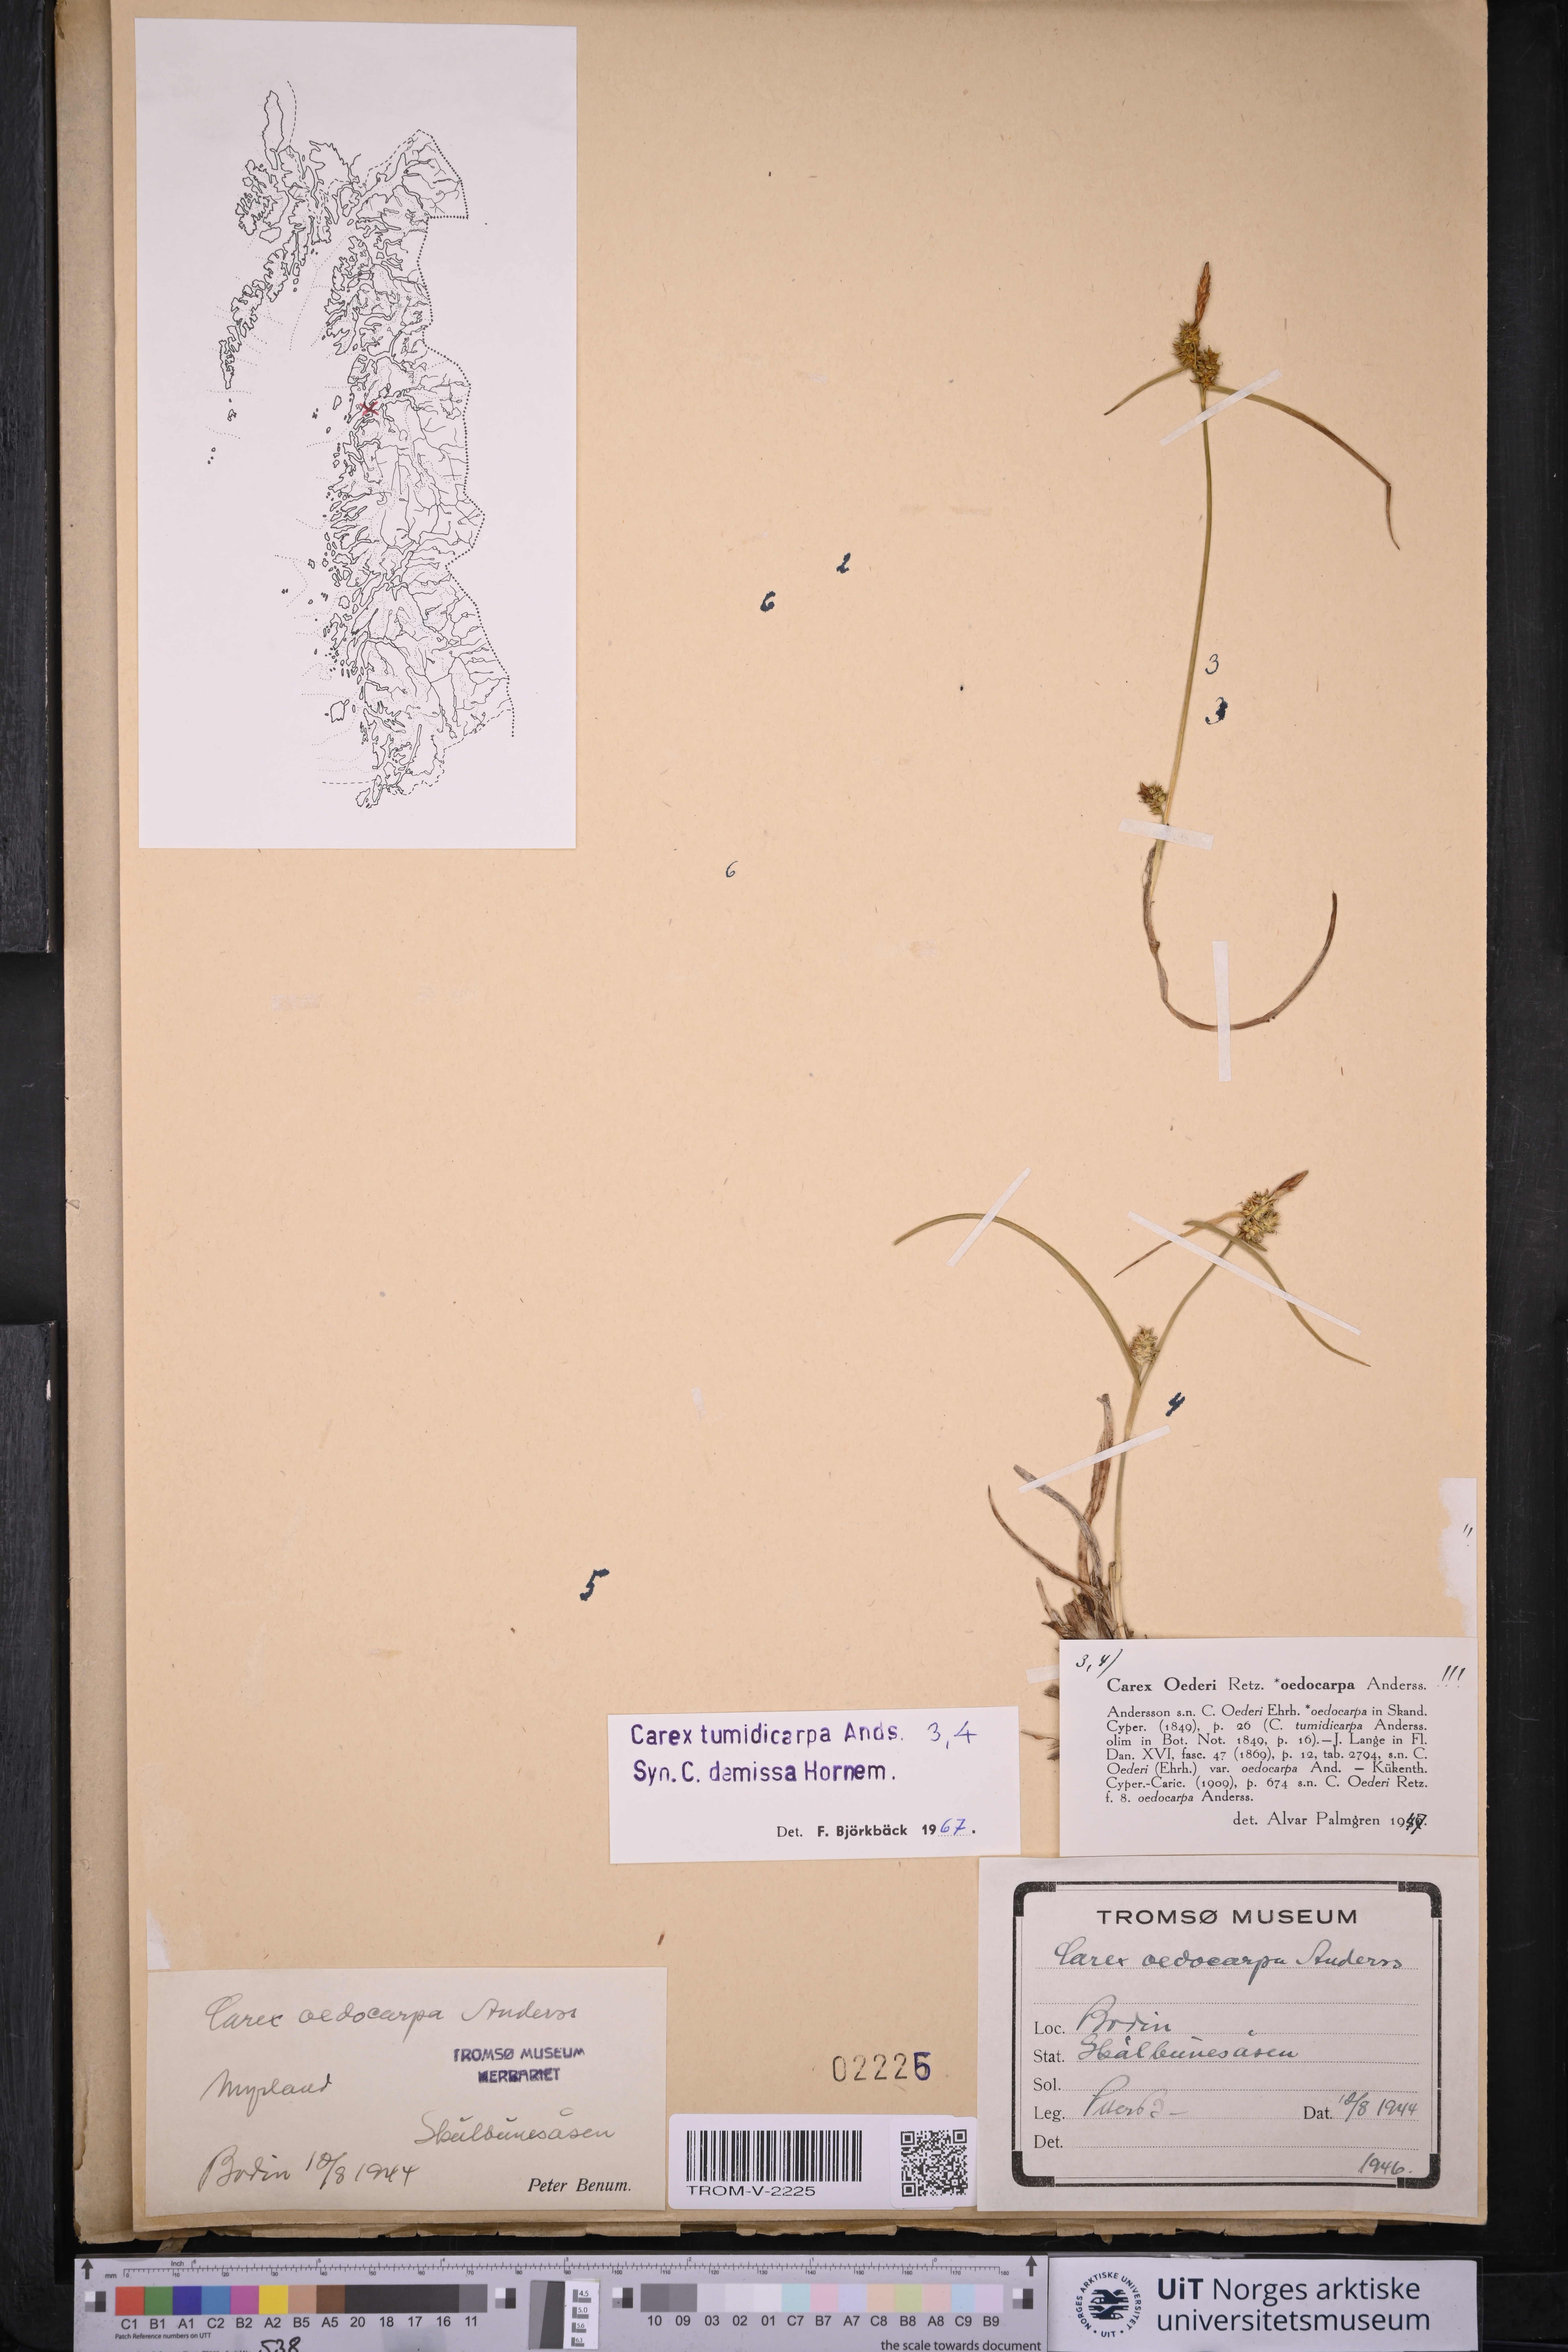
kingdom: Plantae
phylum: Tracheophyta
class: Liliopsida
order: Poales
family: Cyperaceae
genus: Carex
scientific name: Carex demissa
